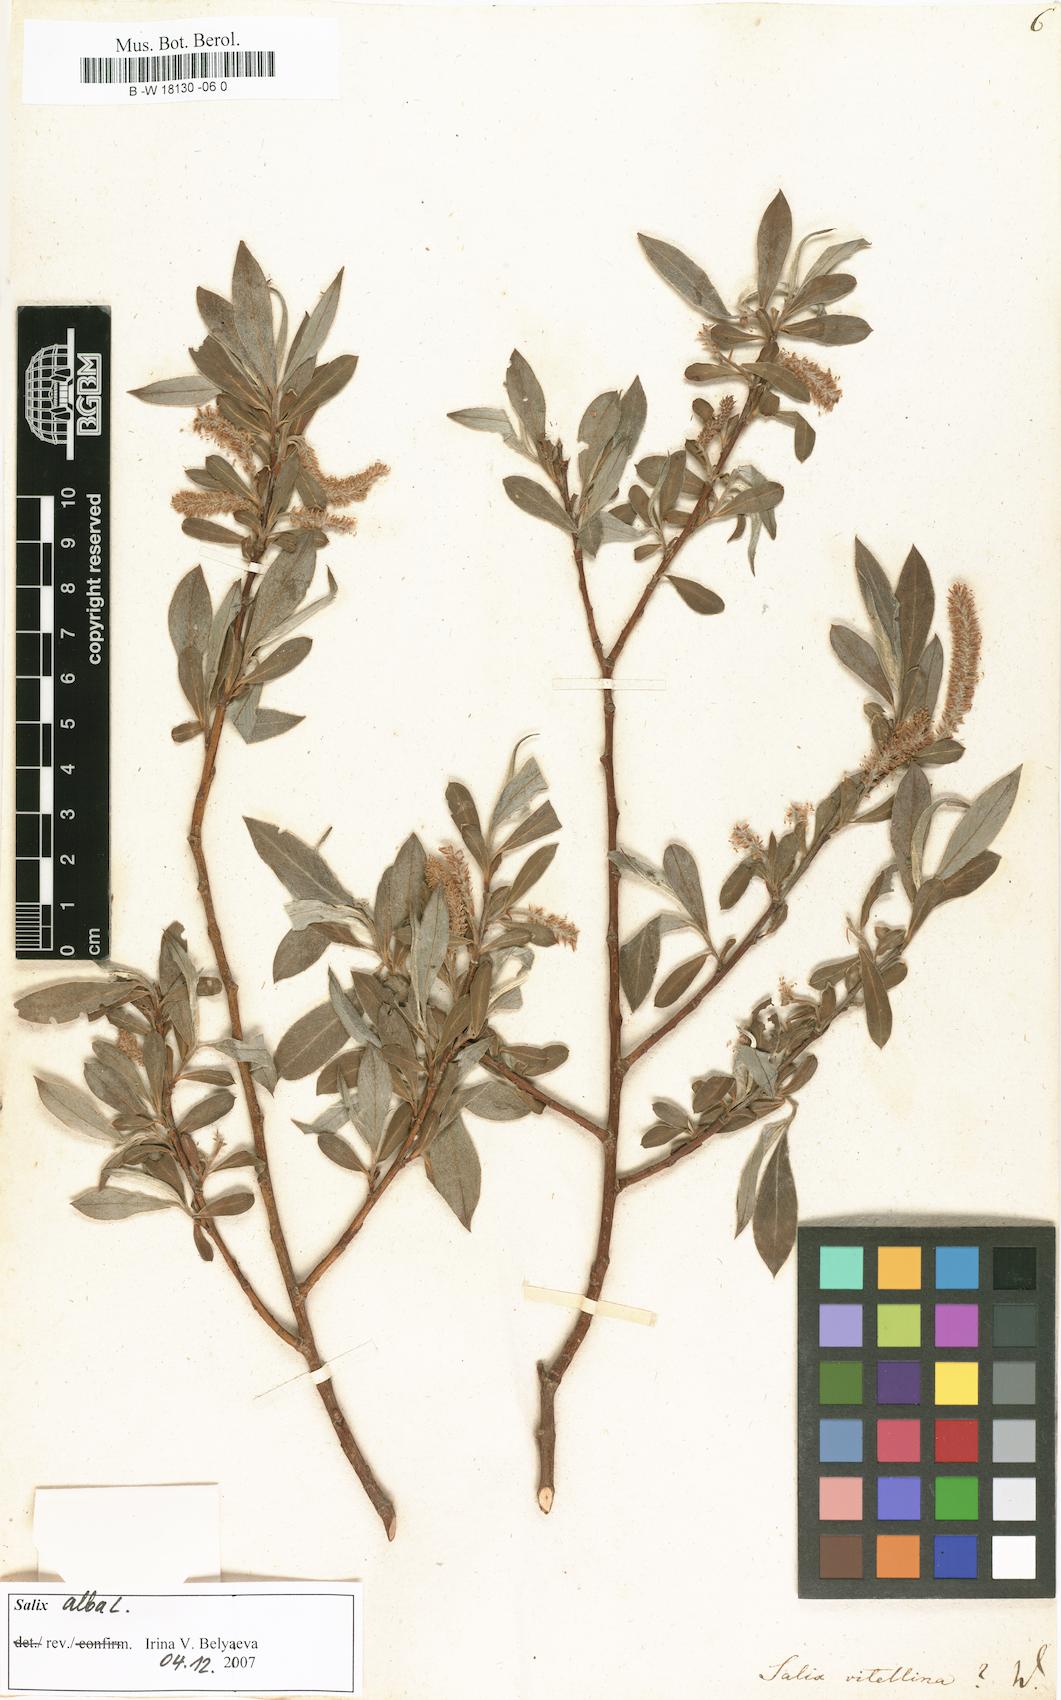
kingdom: Plantae
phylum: Tracheophyta
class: Magnoliopsida
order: Malpighiales
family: Salicaceae
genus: Salix
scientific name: Salix alba
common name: White willow
